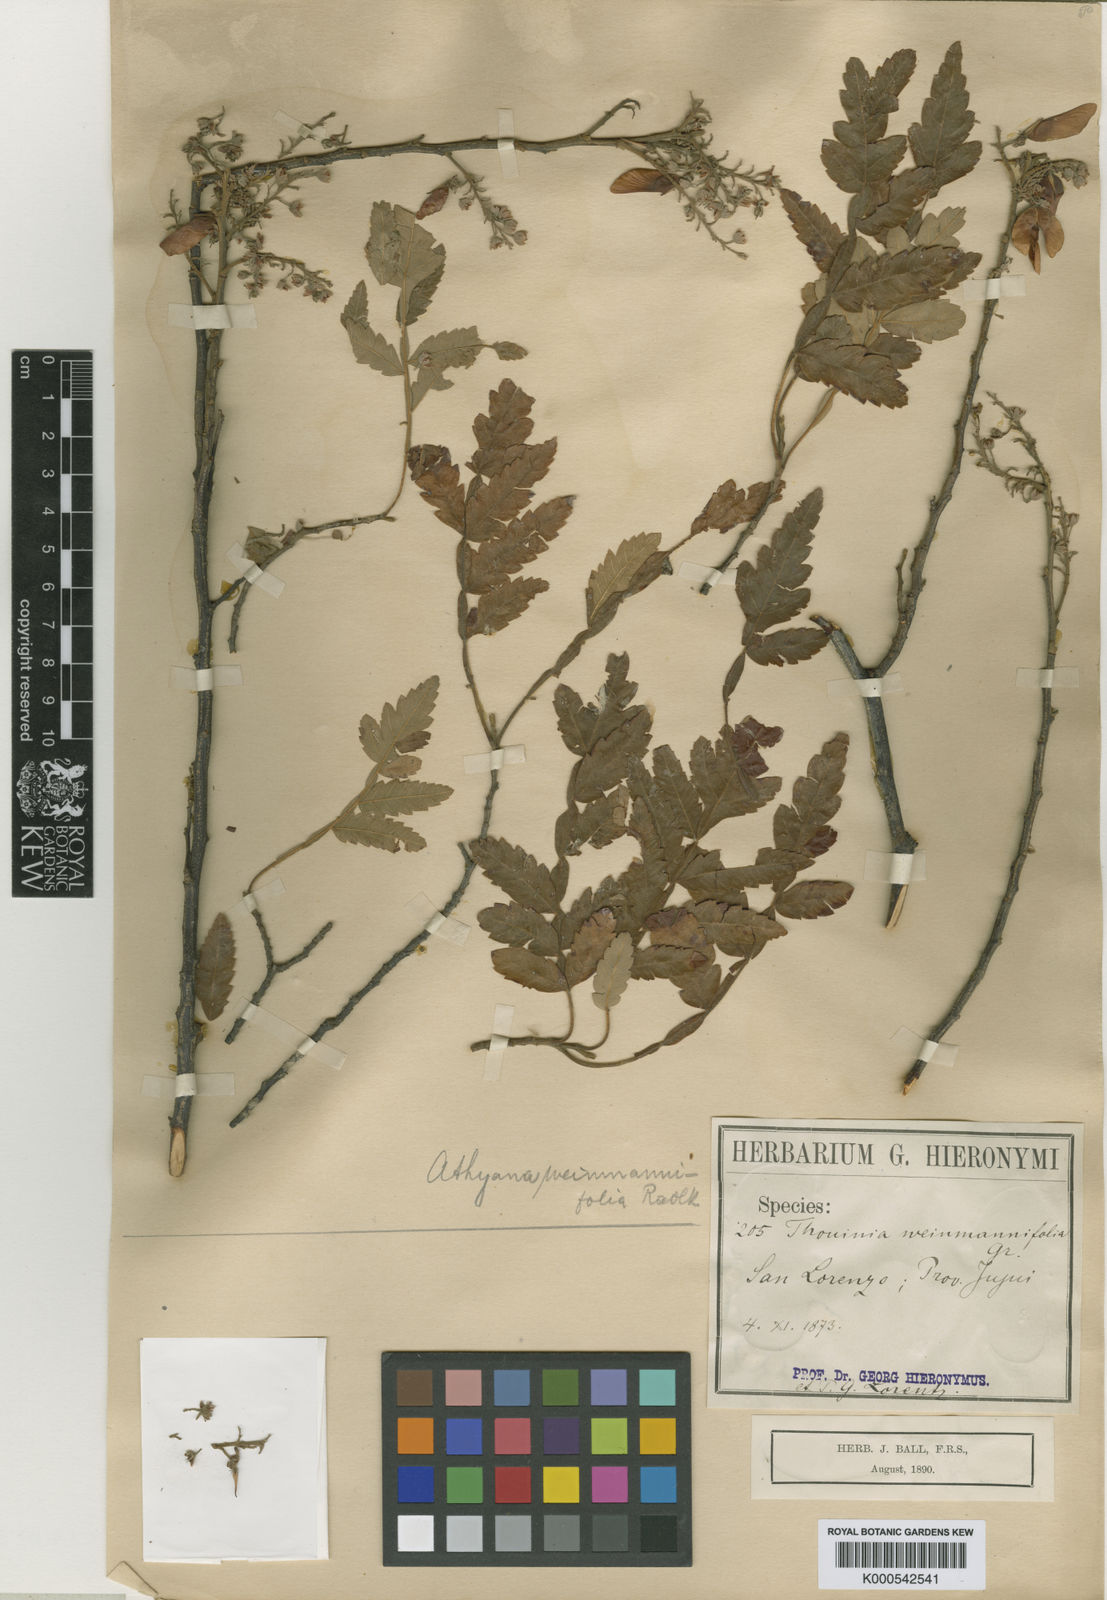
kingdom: Plantae
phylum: Tracheophyta
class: Magnoliopsida
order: Sapindales
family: Sapindaceae
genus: Athyana
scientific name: Athyana weinmanniifolia
